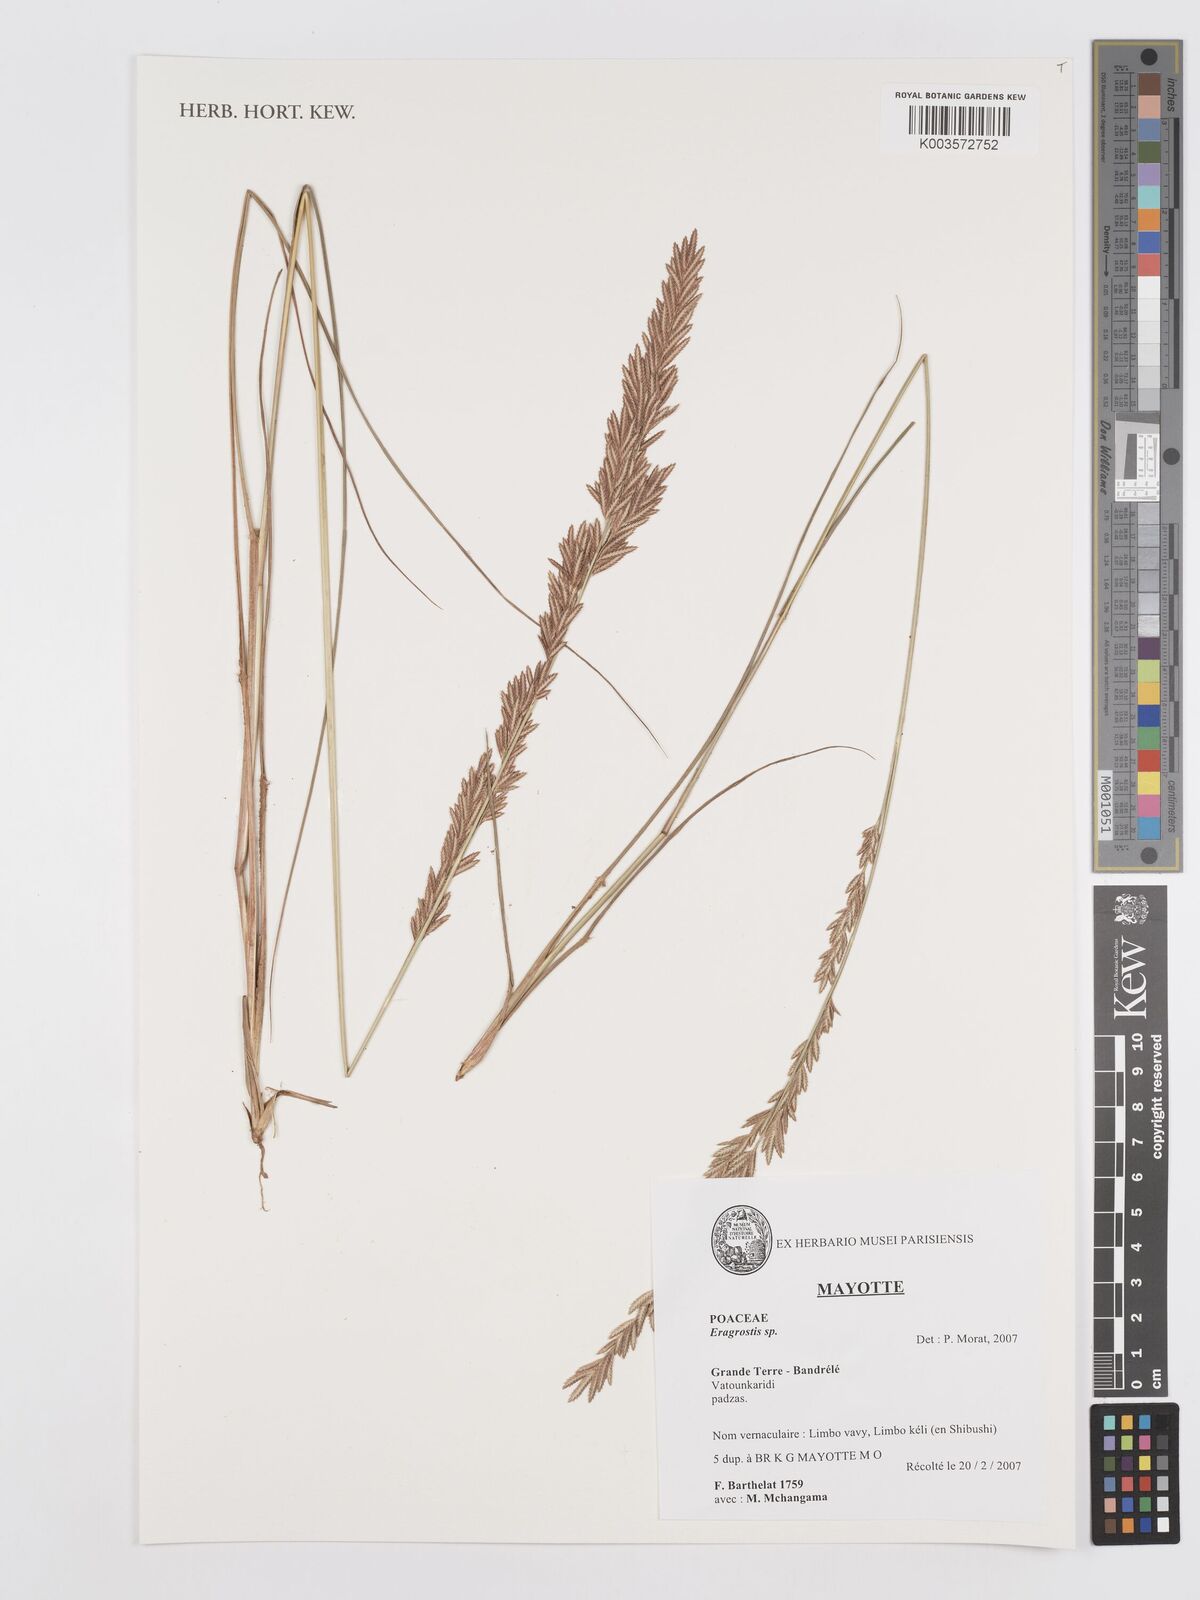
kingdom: Plantae
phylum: Tracheophyta
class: Liliopsida
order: Poales
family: Poaceae
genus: Eragrostis
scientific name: Eragrostis
